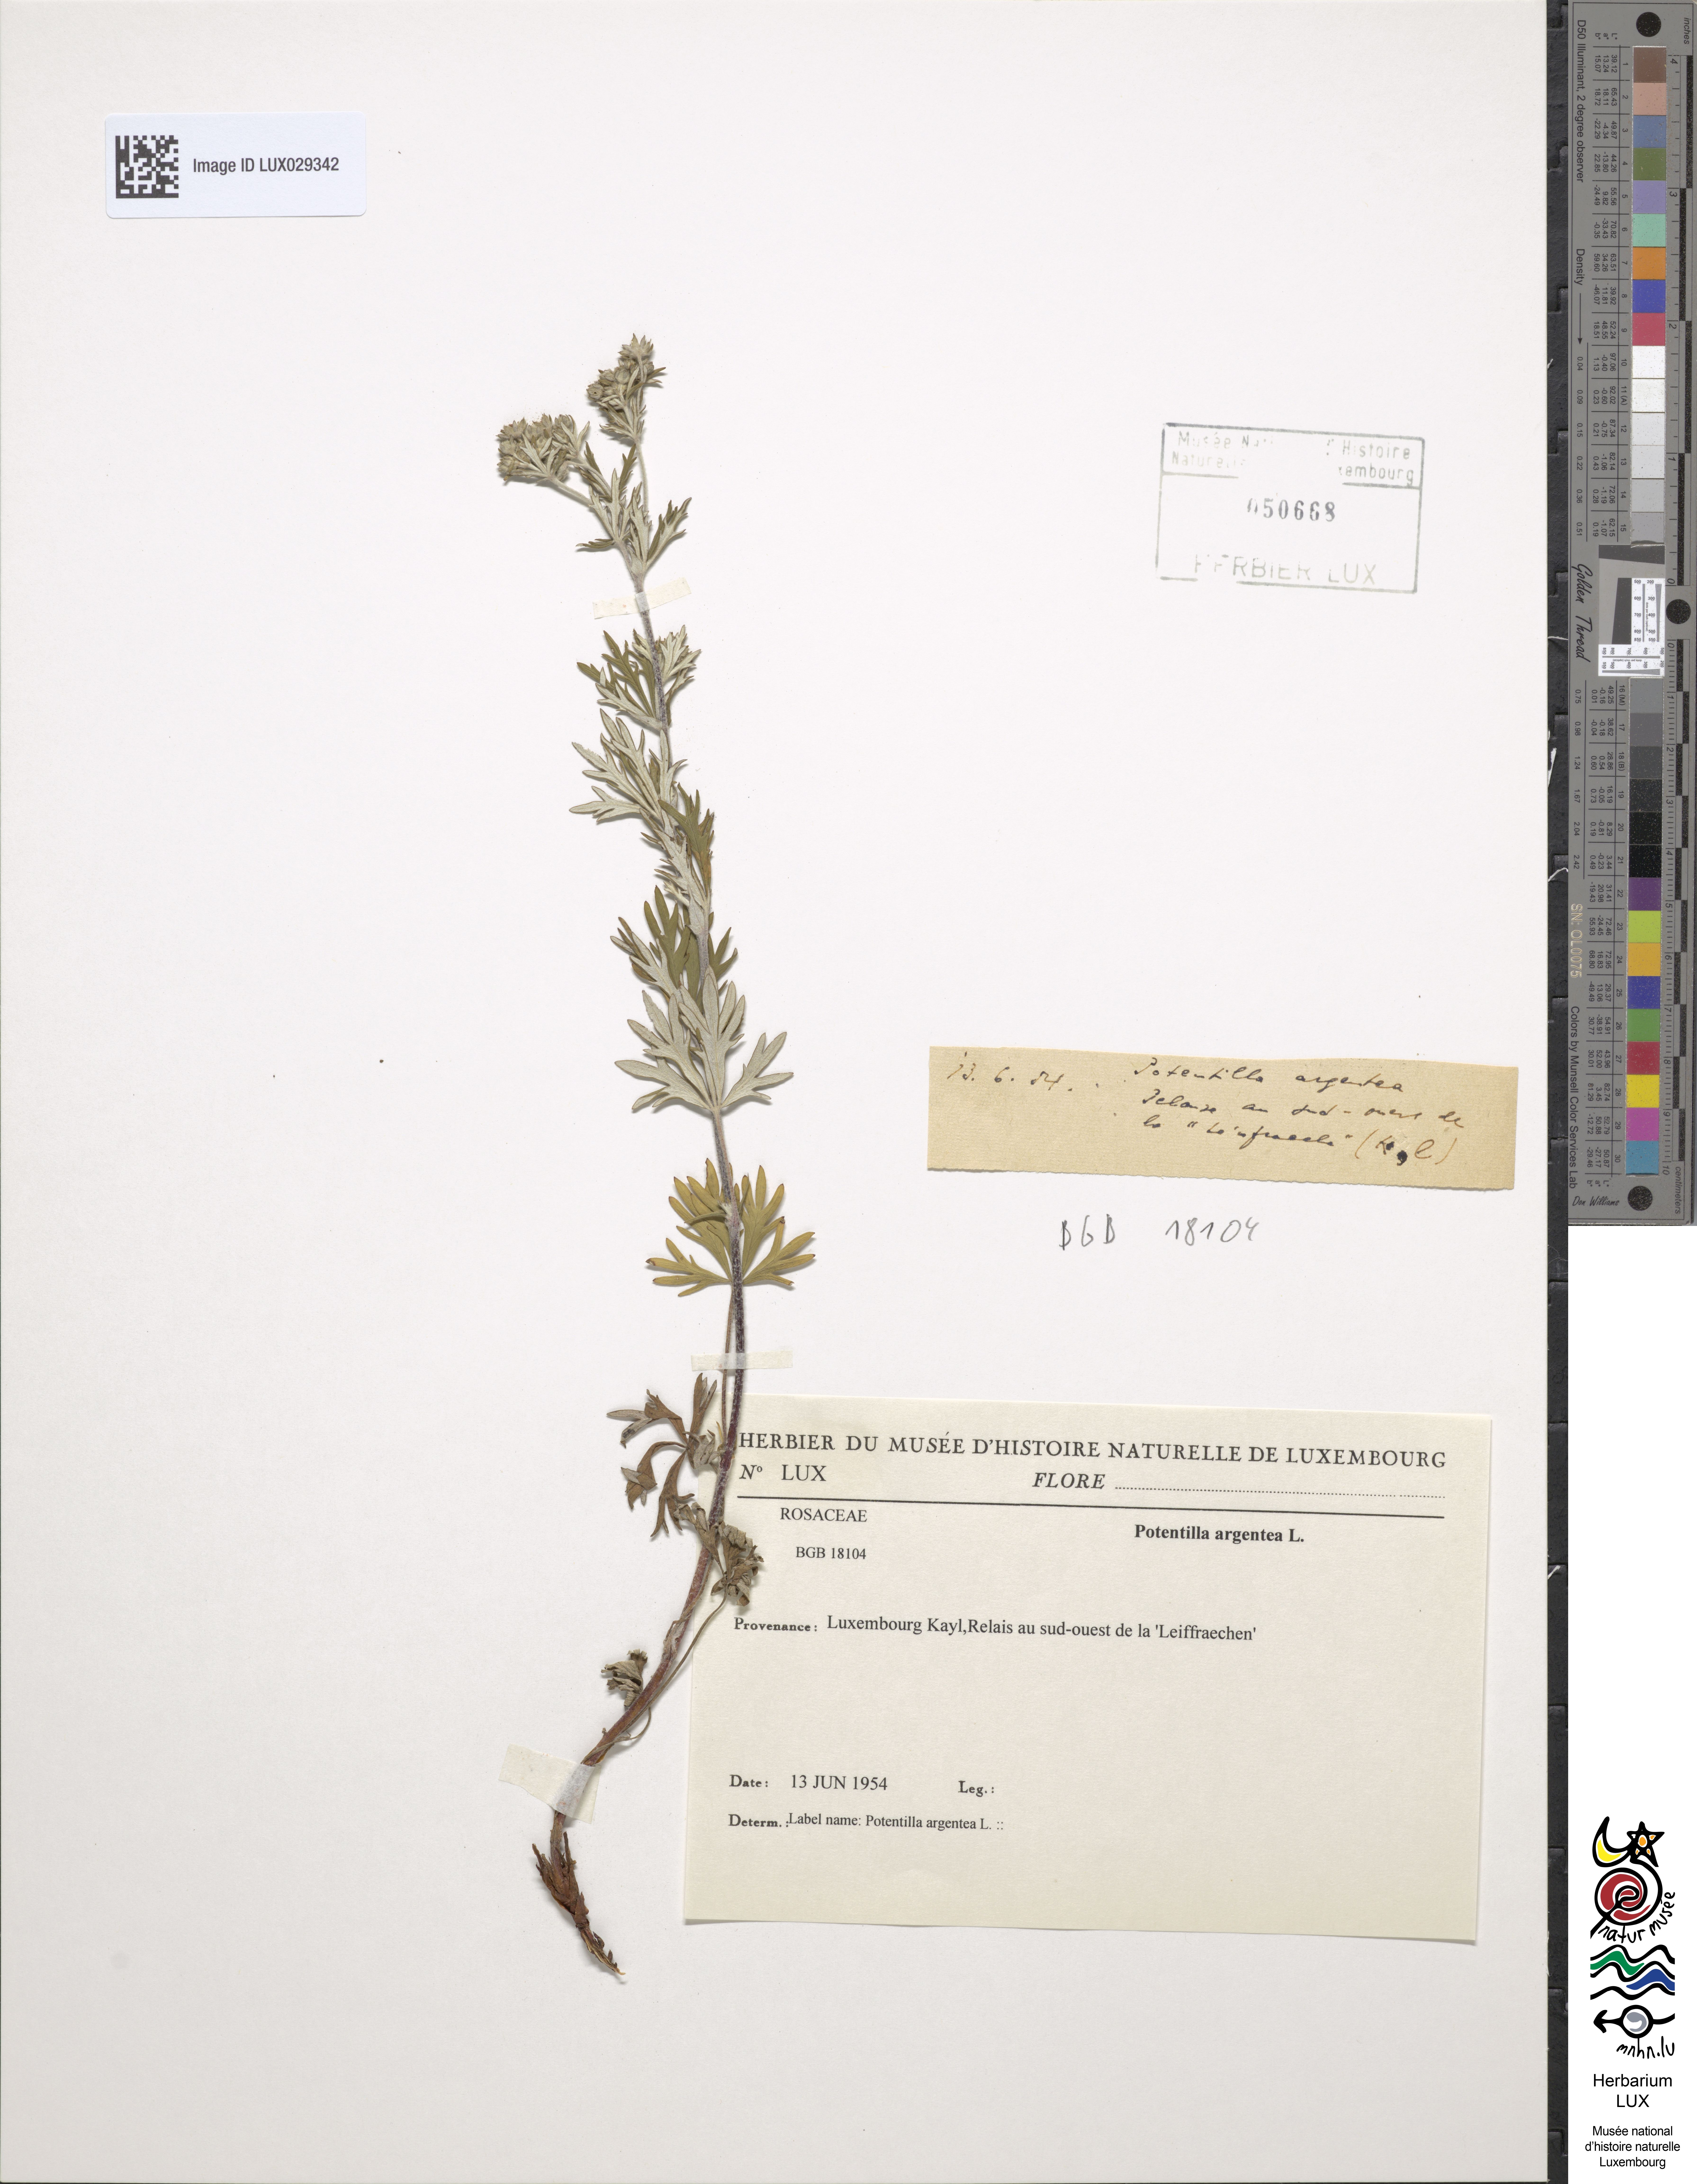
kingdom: Plantae
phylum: Tracheophyta
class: Magnoliopsida
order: Rosales
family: Rosaceae
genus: Potentilla
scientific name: Potentilla argentea
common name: Hoary cinquefoil
